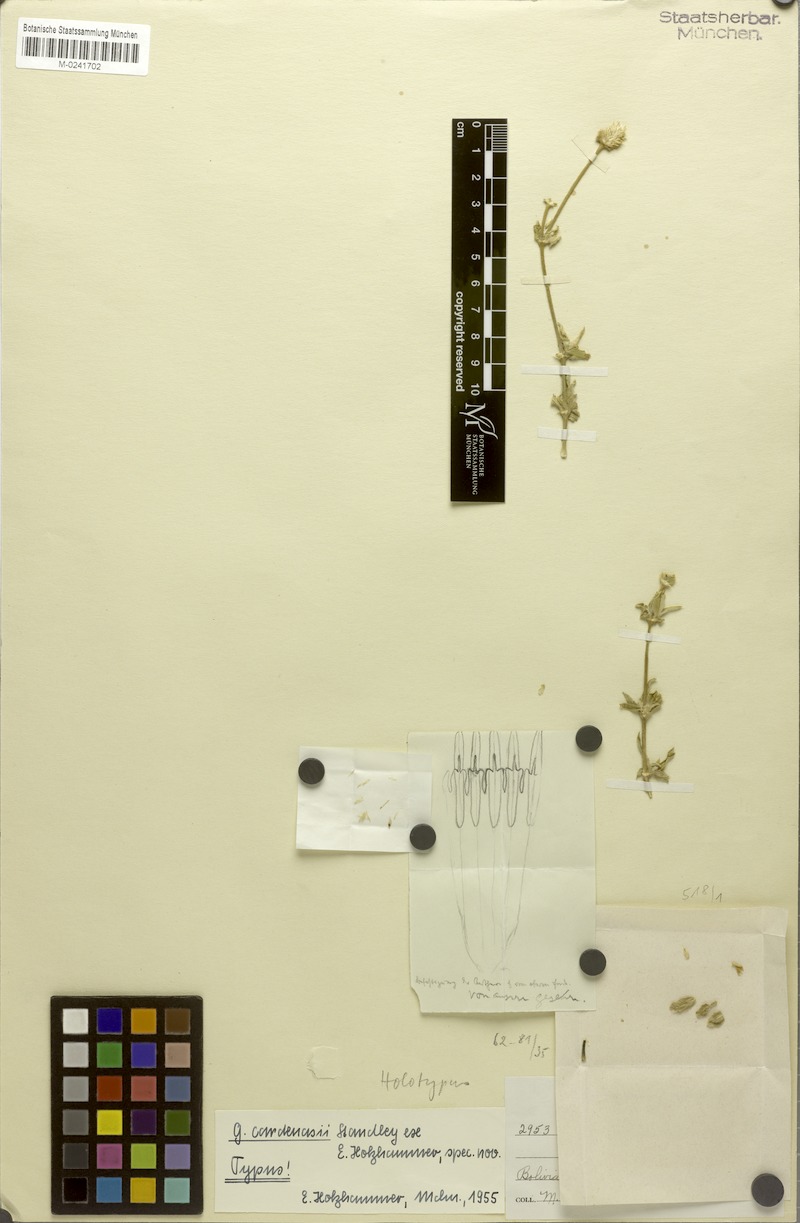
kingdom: Plantae
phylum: Tracheophyta
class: Magnoliopsida
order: Caryophyllales
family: Amaranthaceae
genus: Gomphrena
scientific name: Gomphrena cardenasii
